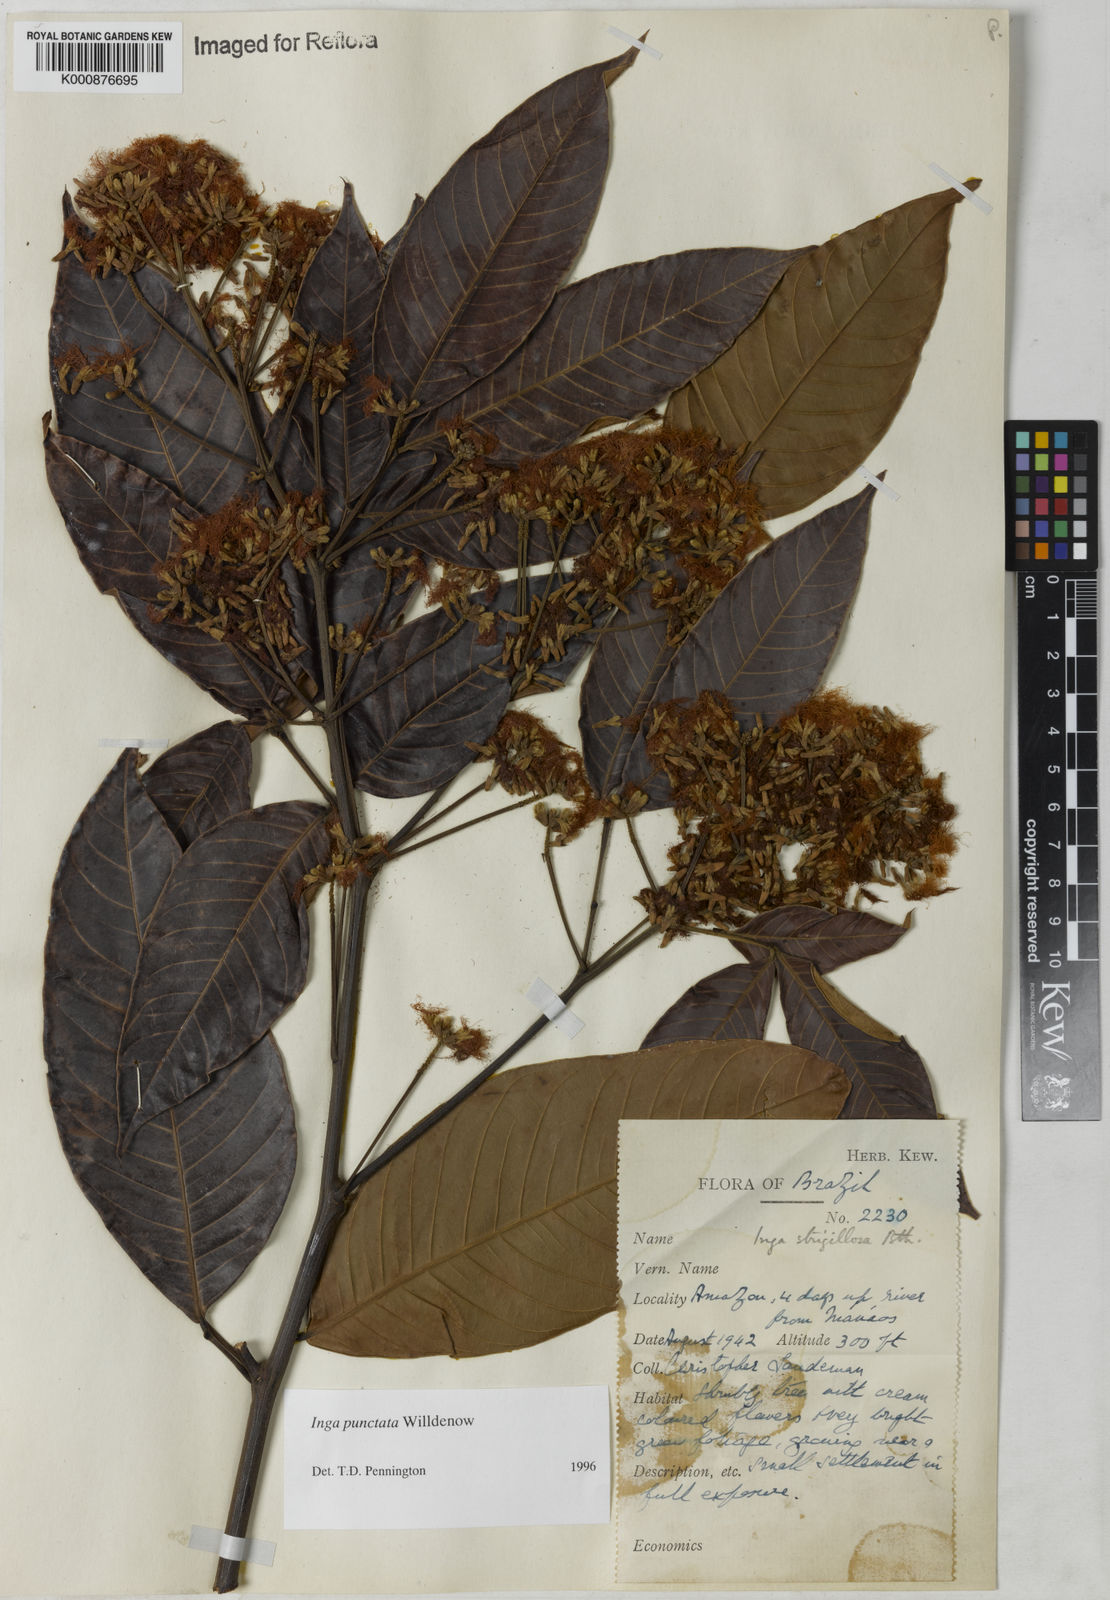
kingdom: Plantae
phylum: Tracheophyta
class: Magnoliopsida
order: Fabales
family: Fabaceae
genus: Inga
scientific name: Inga punctata
